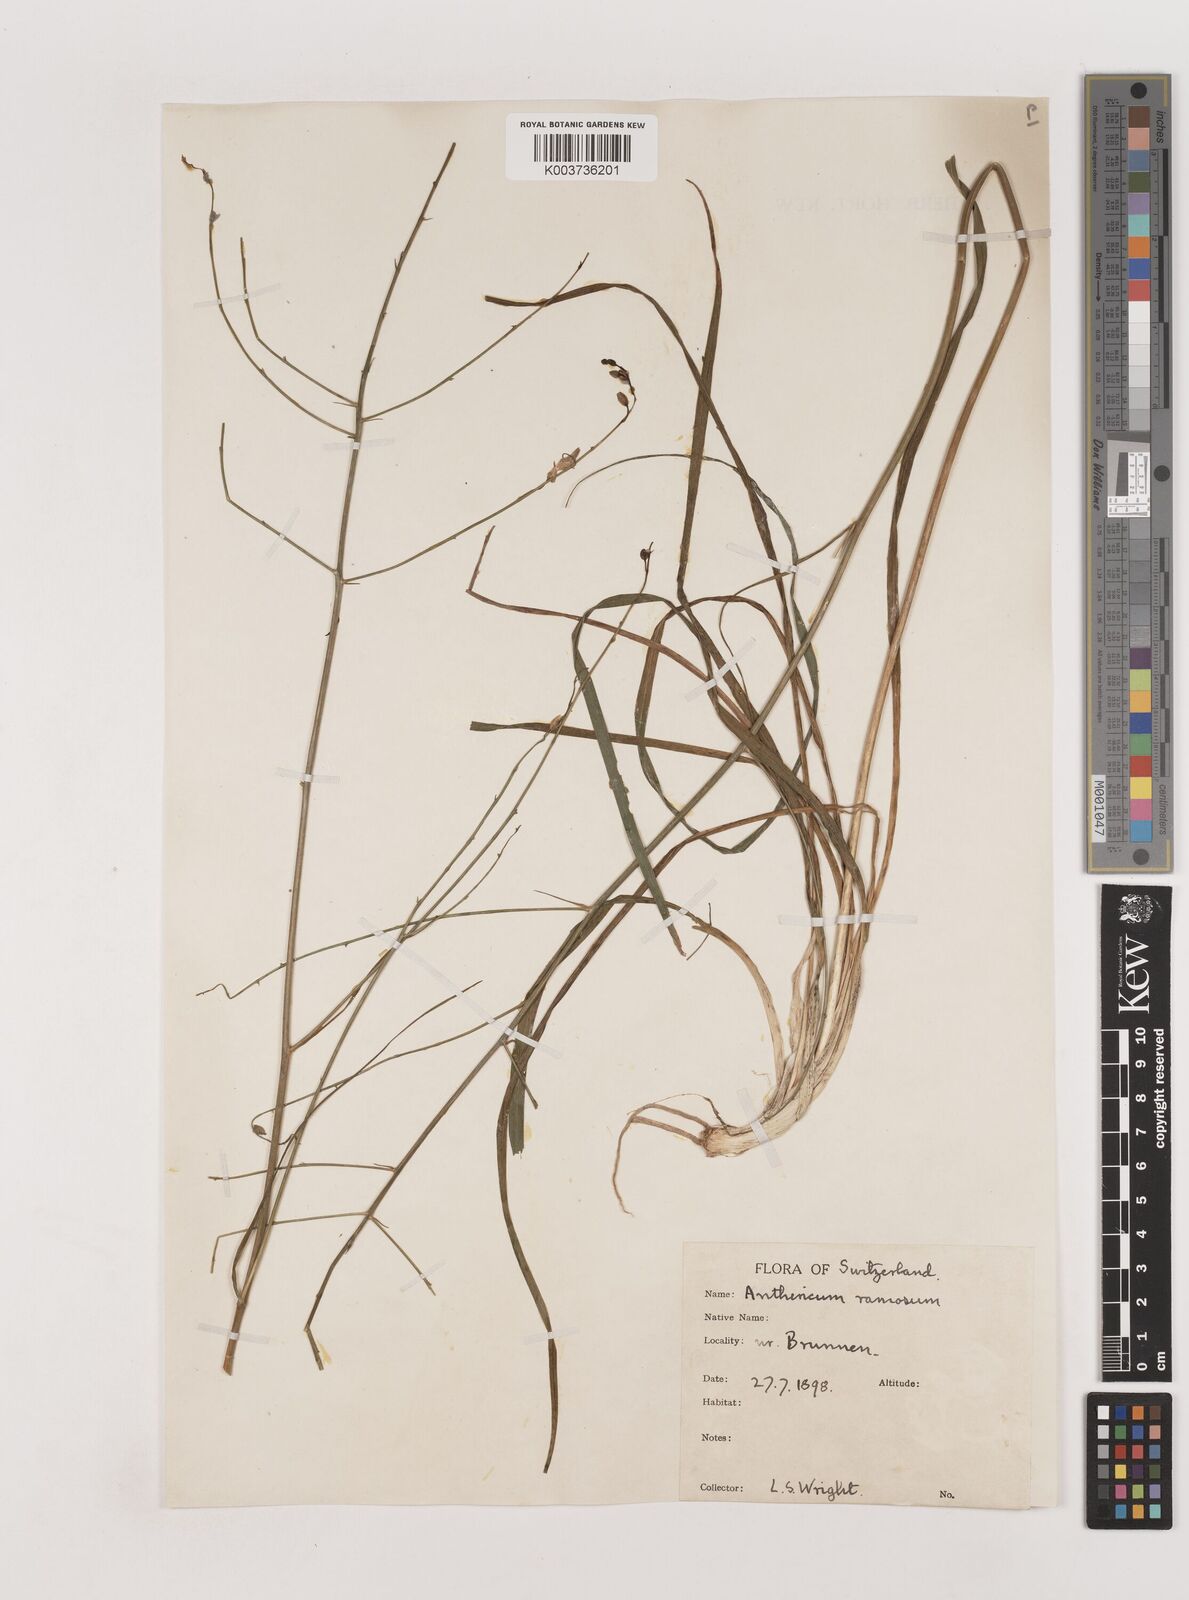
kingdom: Plantae
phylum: Tracheophyta
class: Liliopsida
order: Asparagales
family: Asparagaceae
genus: Anthericum
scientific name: Anthericum ramosum
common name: Branched st. bernard's-lily
